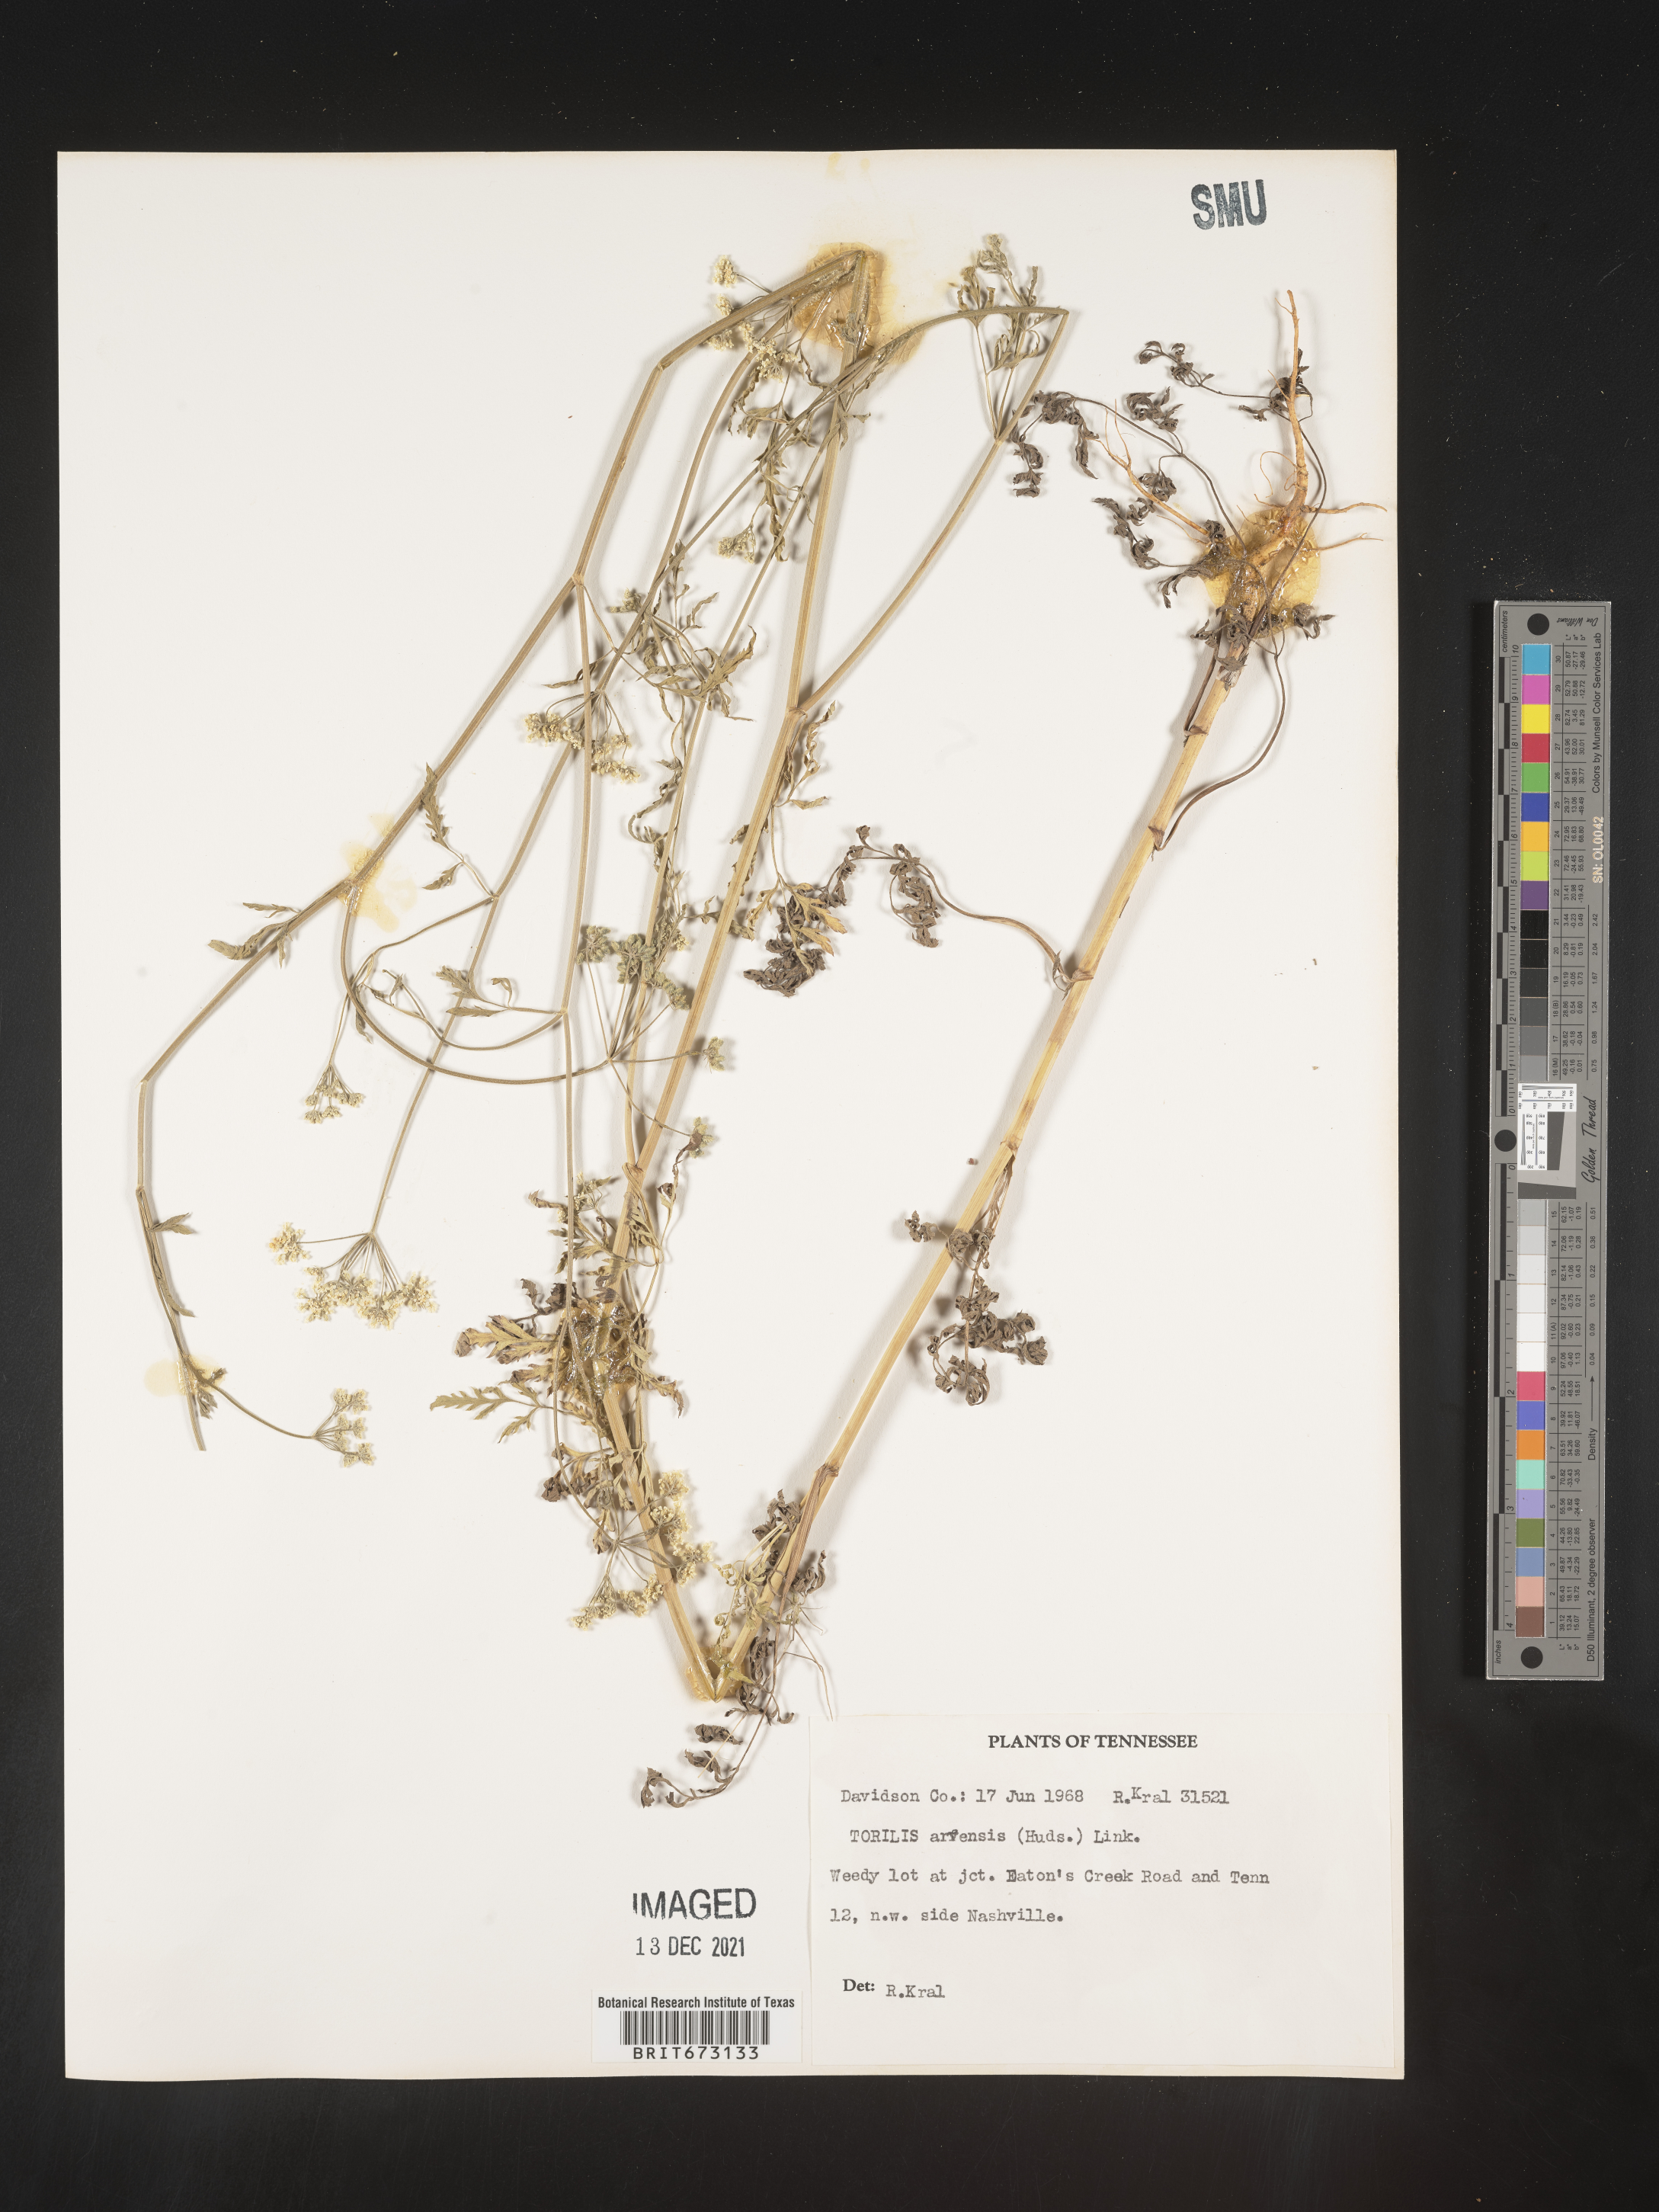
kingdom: Plantae
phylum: Tracheophyta
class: Magnoliopsida
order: Apiales
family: Apiaceae
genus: Torilis
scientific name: Torilis arvensis
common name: Spreading hedge-parsley
